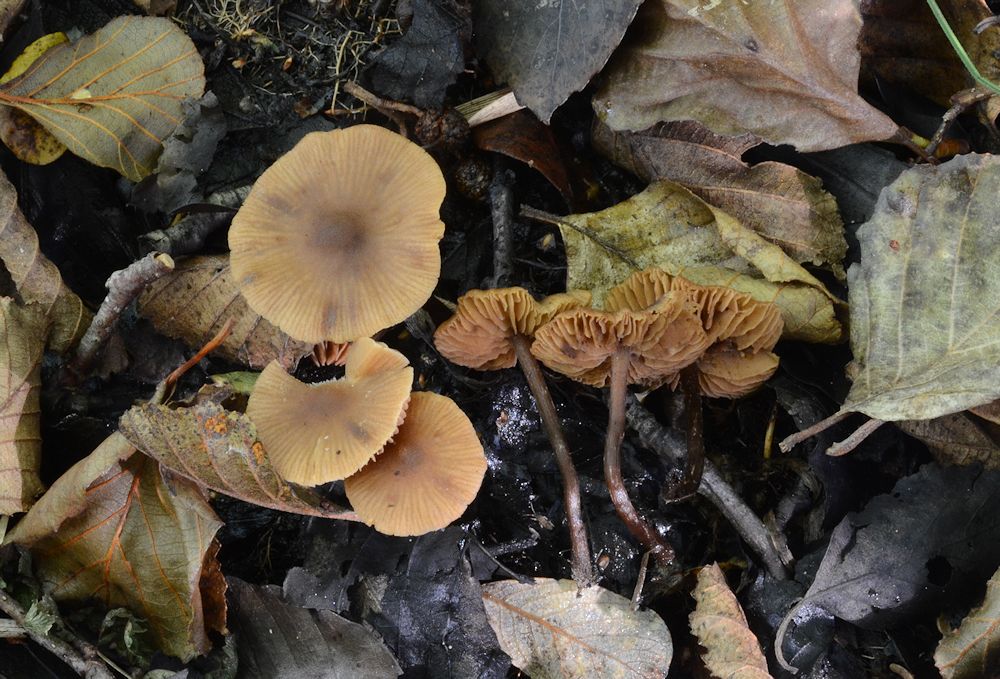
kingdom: Fungi
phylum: Basidiomycota
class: Agaricomycetes
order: Agaricales
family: Hymenogastraceae
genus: Naucoria
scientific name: Naucoria scolecina
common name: mørk elle-knaphat
